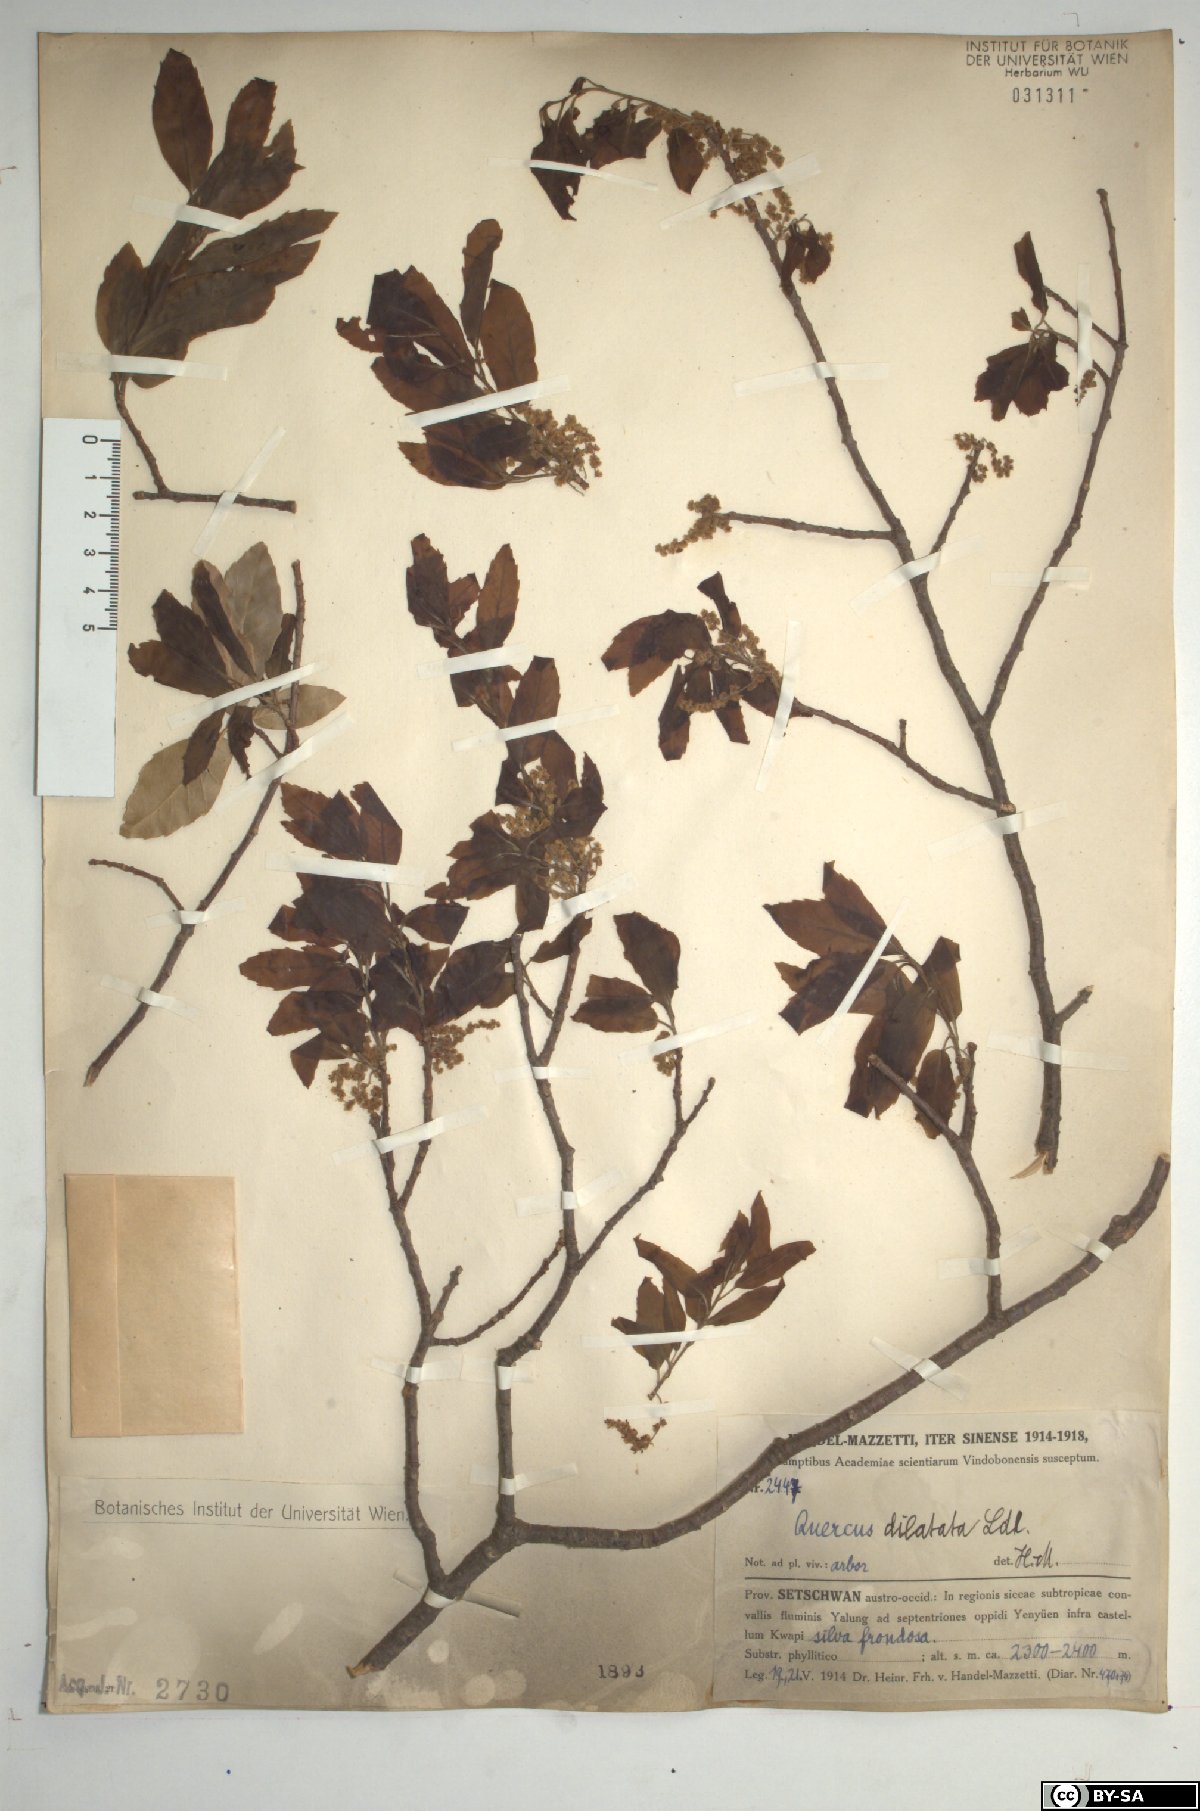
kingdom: Plantae
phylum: Tracheophyta
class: Magnoliopsida
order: Fagales
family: Fagaceae
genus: Quercus
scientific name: Quercus floribunda
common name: Moru
